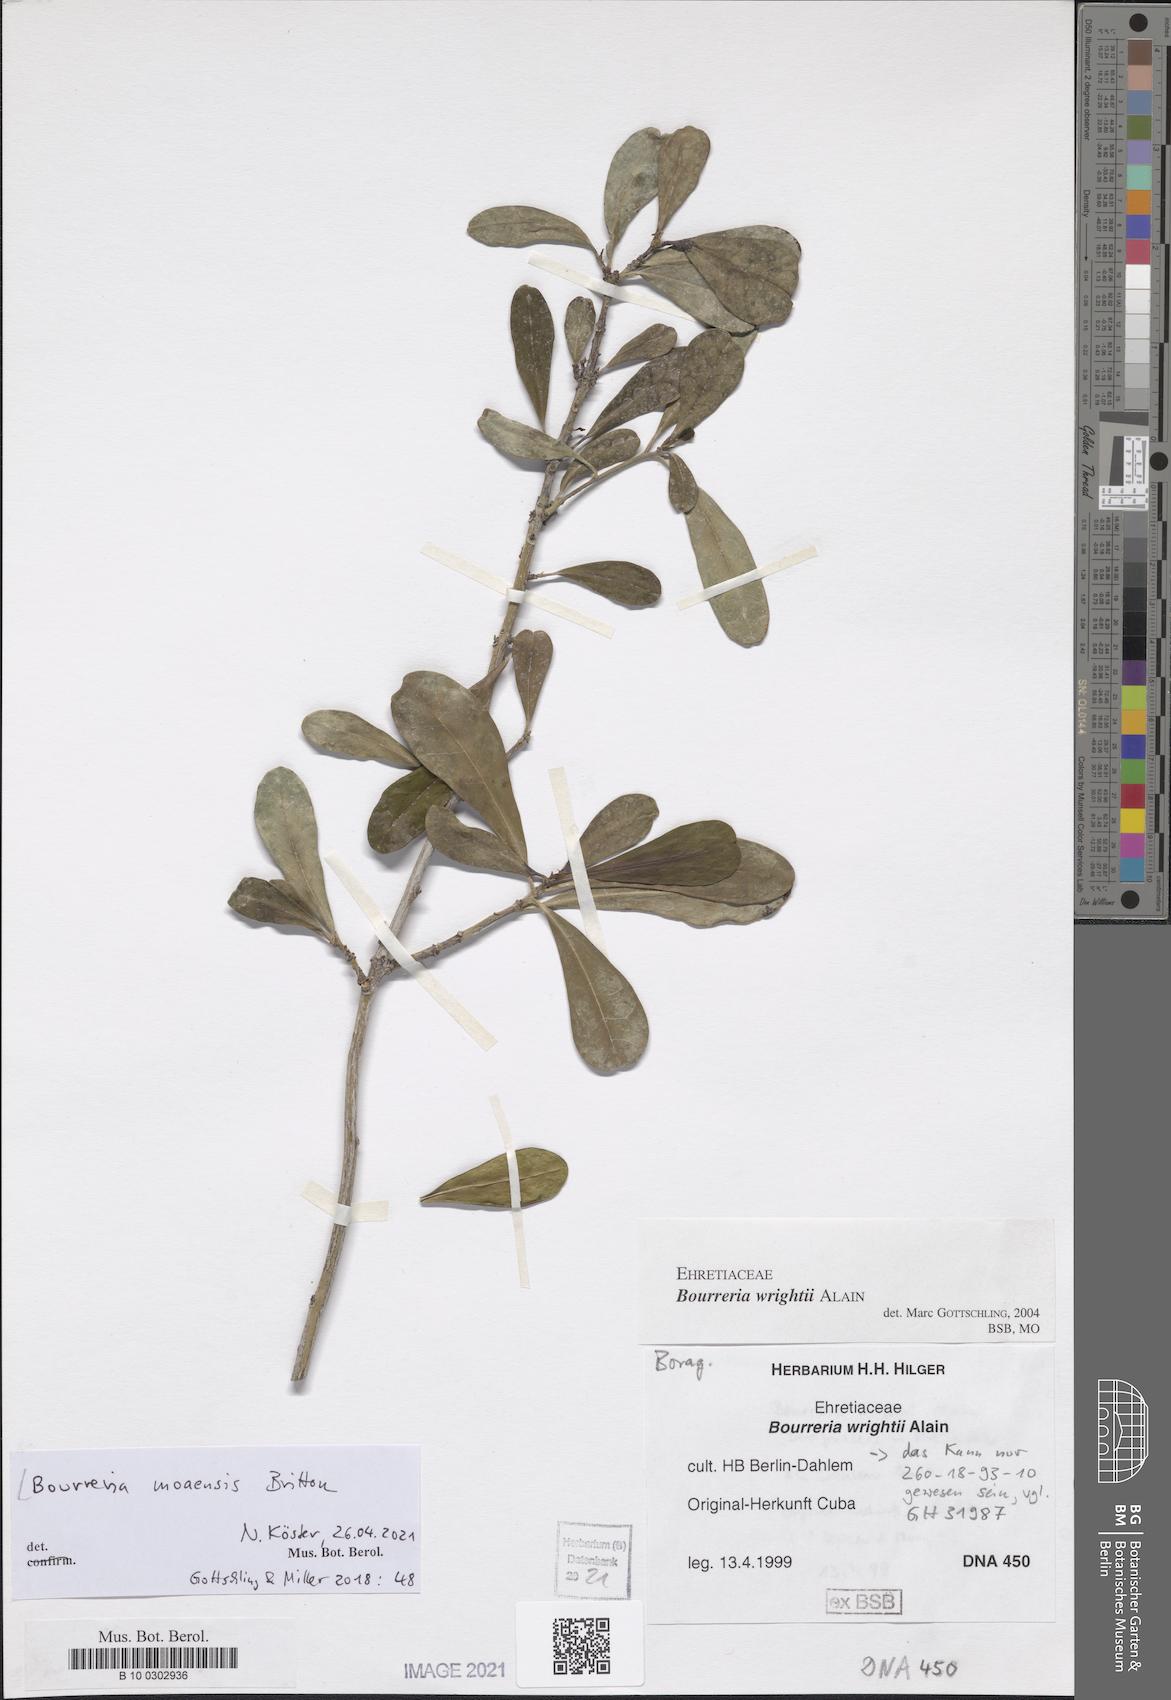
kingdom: Plantae
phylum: Tracheophyta
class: Magnoliopsida
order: Boraginales
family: Ehretiaceae
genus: Bourreria
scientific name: Bourreria moaensis
